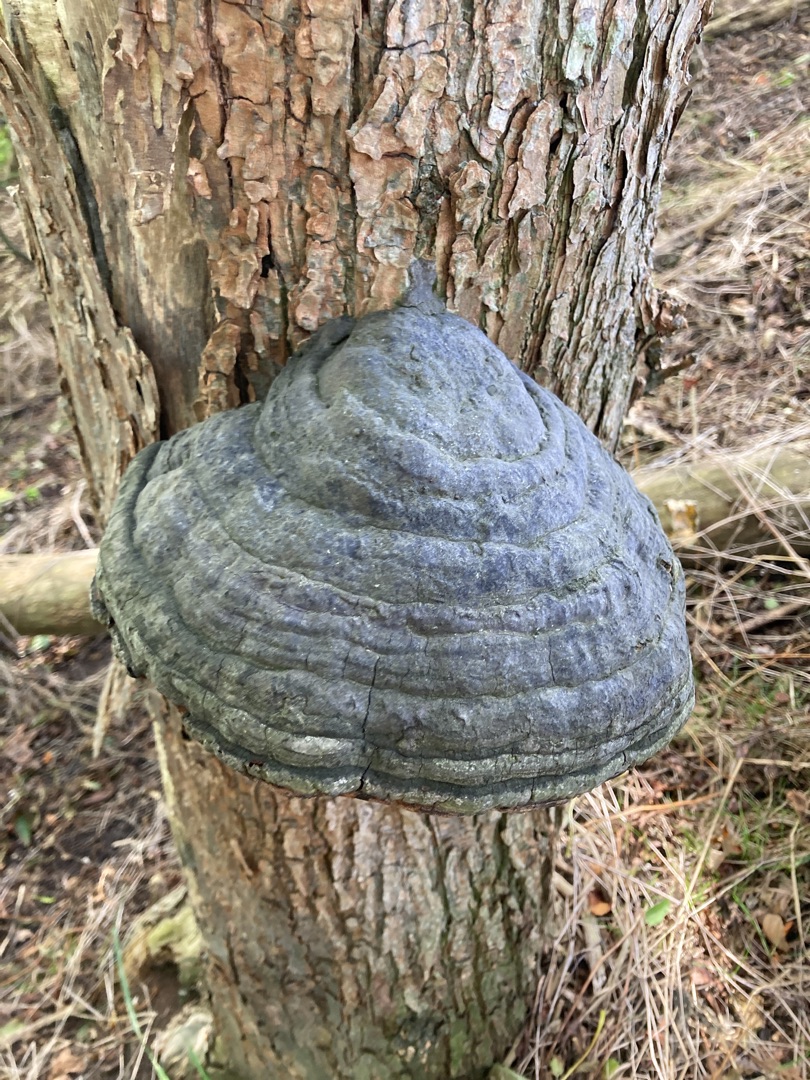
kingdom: Fungi
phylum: Basidiomycota
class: Agaricomycetes
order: Polyporales
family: Polyporaceae
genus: Fomes
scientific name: Fomes fomentarius
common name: Tøndersvamp
